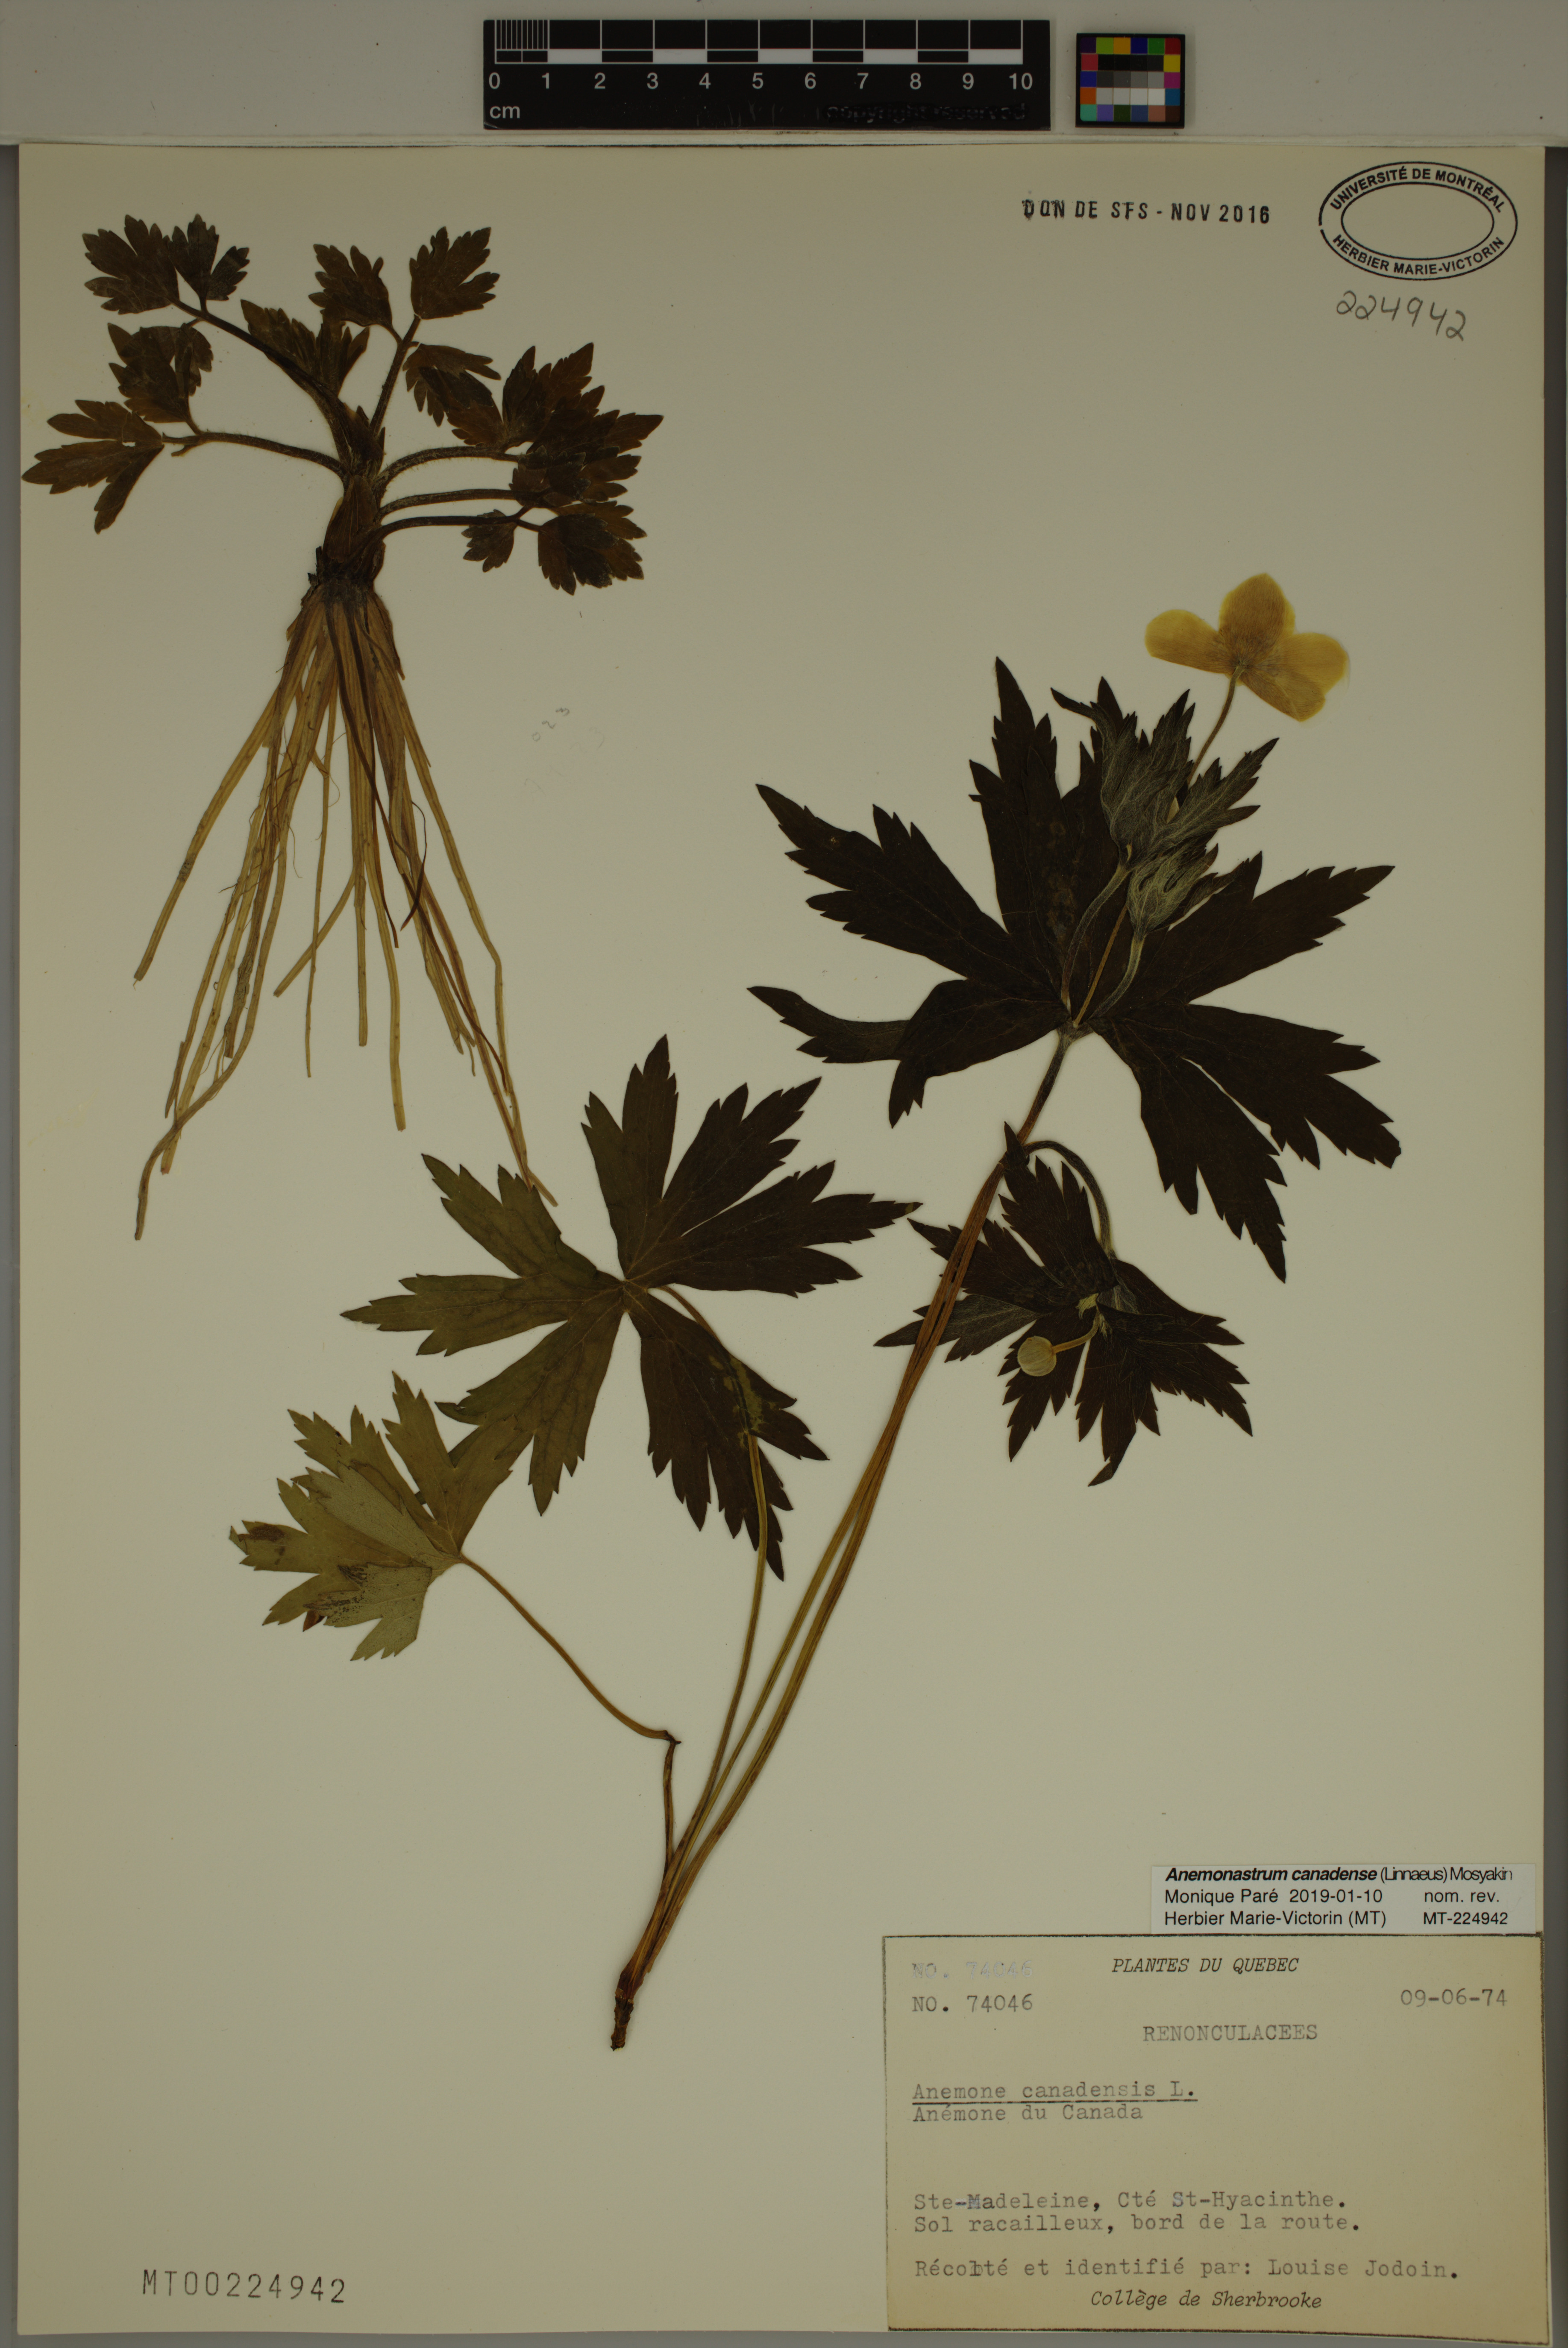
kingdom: Plantae
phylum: Tracheophyta
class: Magnoliopsida
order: Ranunculales
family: Ranunculaceae
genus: Anemonastrum
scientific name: Anemonastrum canadense
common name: Canada anemone
